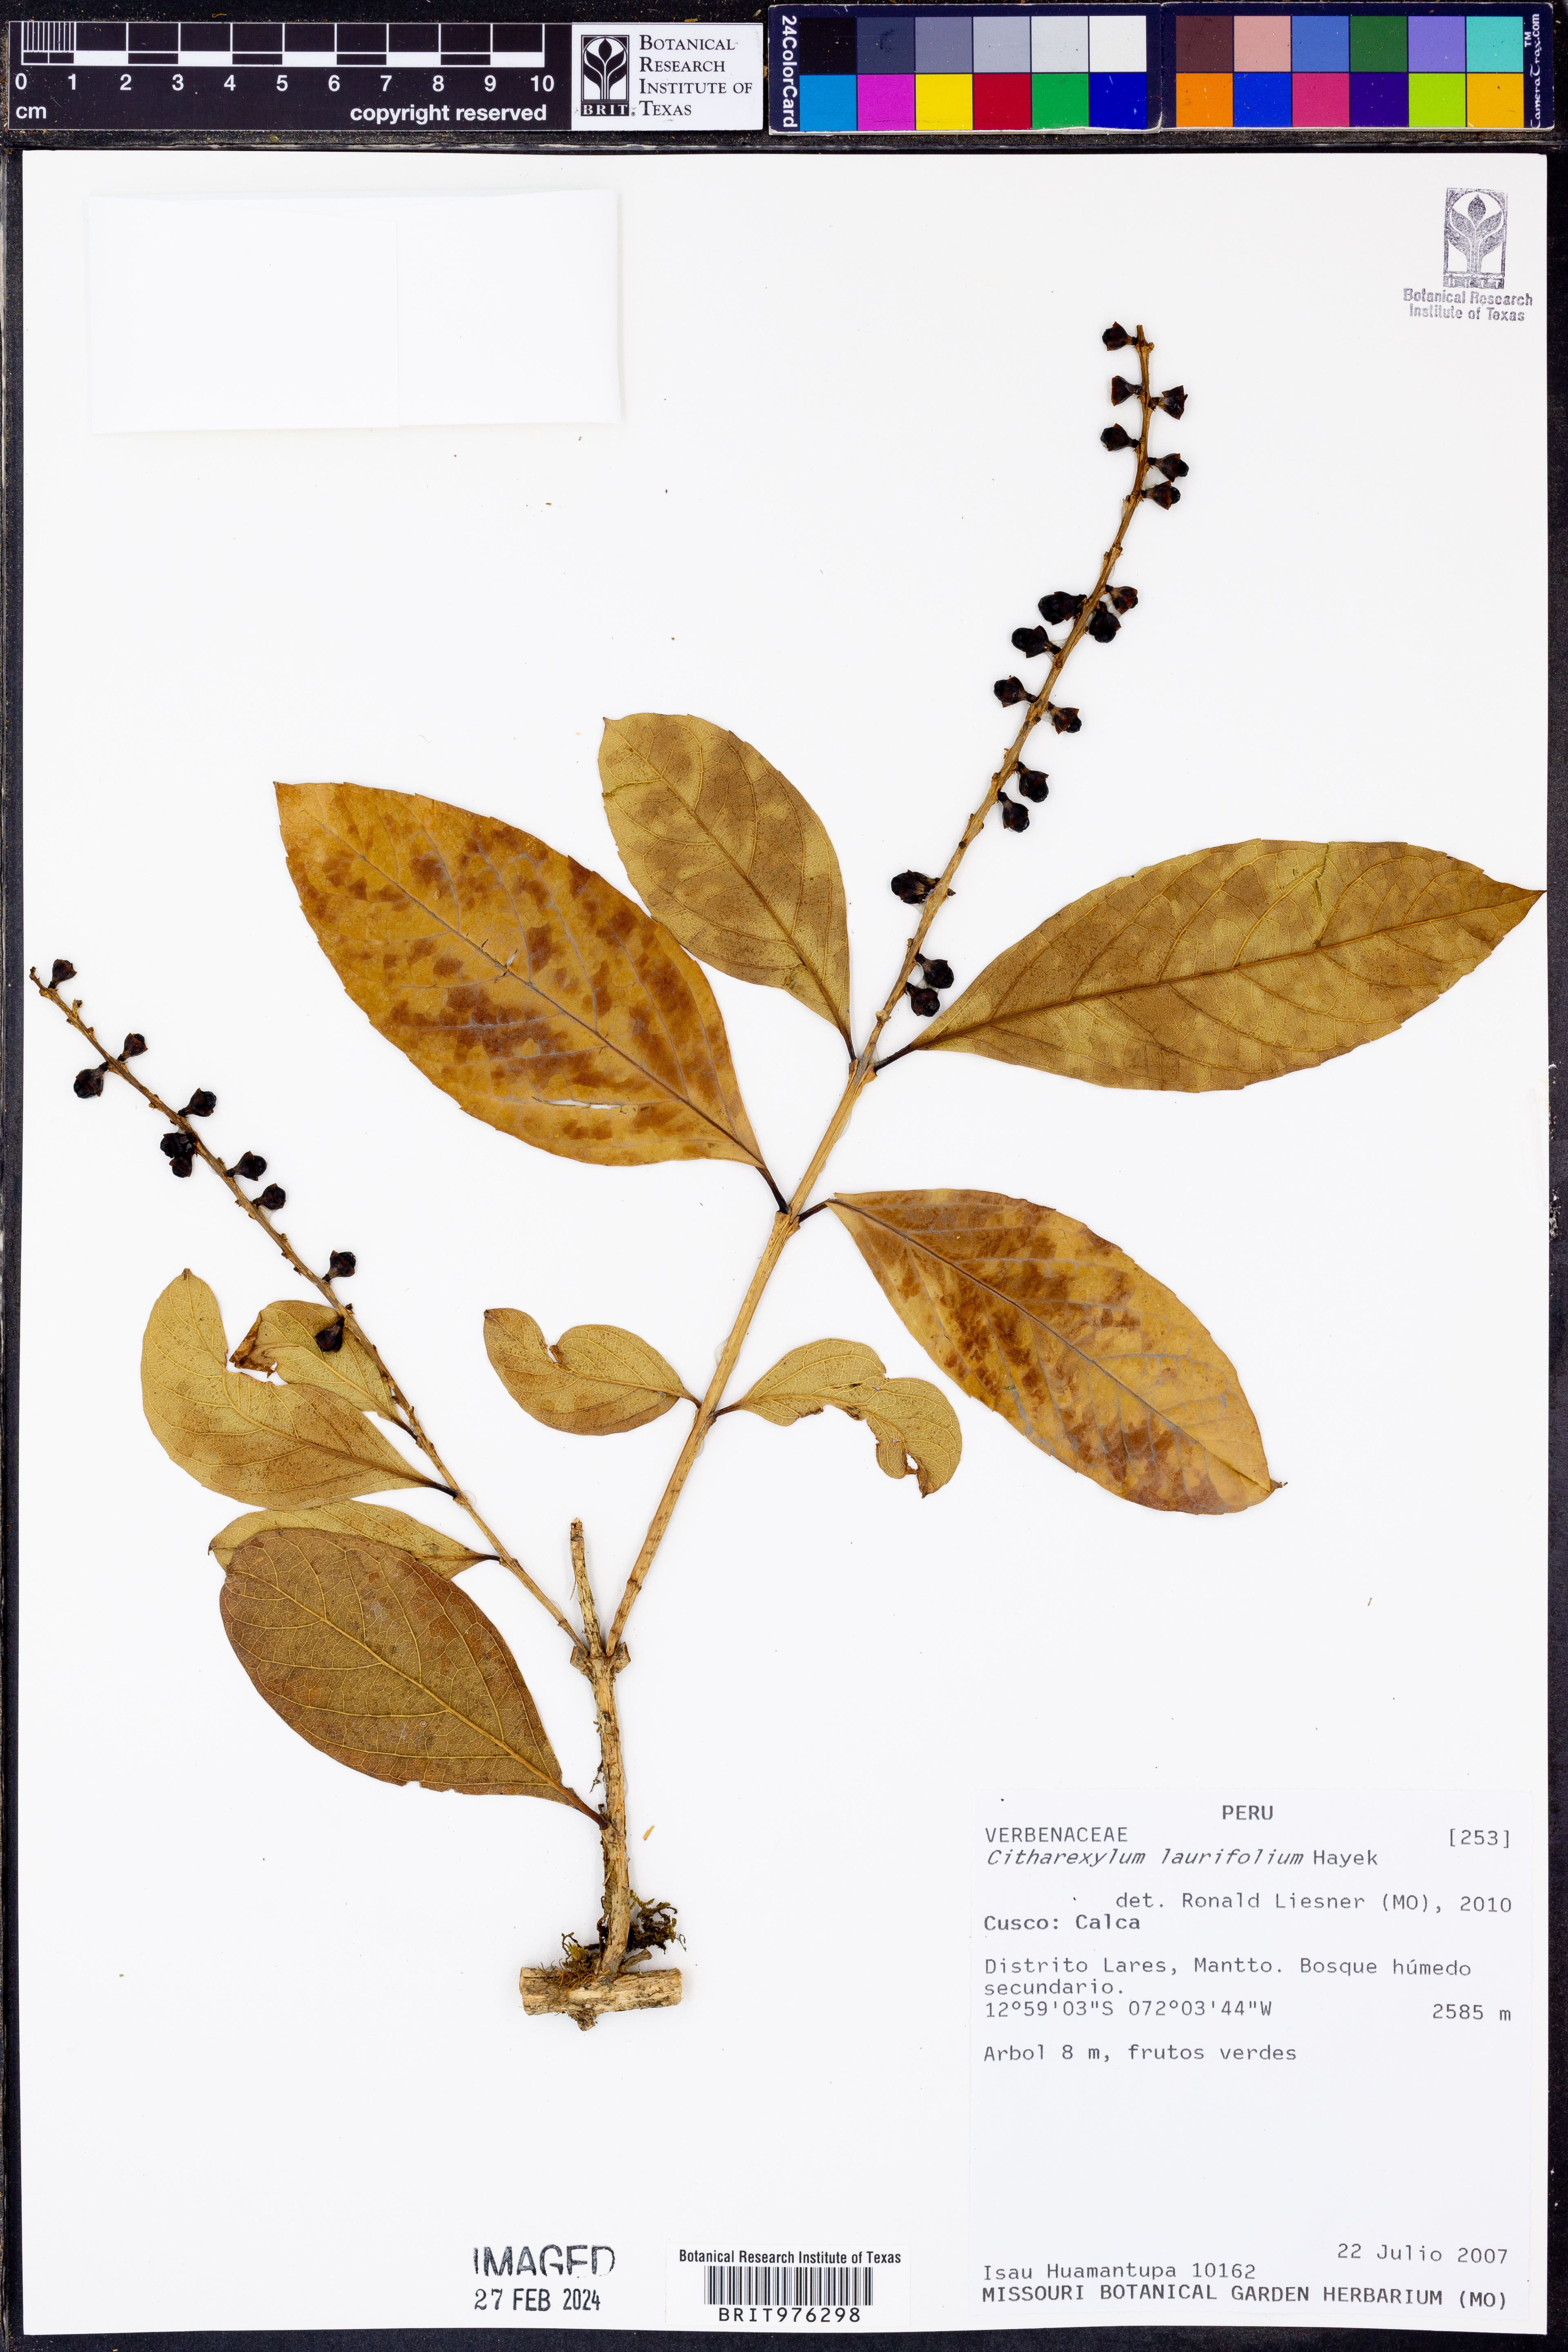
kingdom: Plantae
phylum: Tracheophyta
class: Magnoliopsida
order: Lamiales
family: Verbenaceae
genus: Citharexylum
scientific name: Citharexylum
